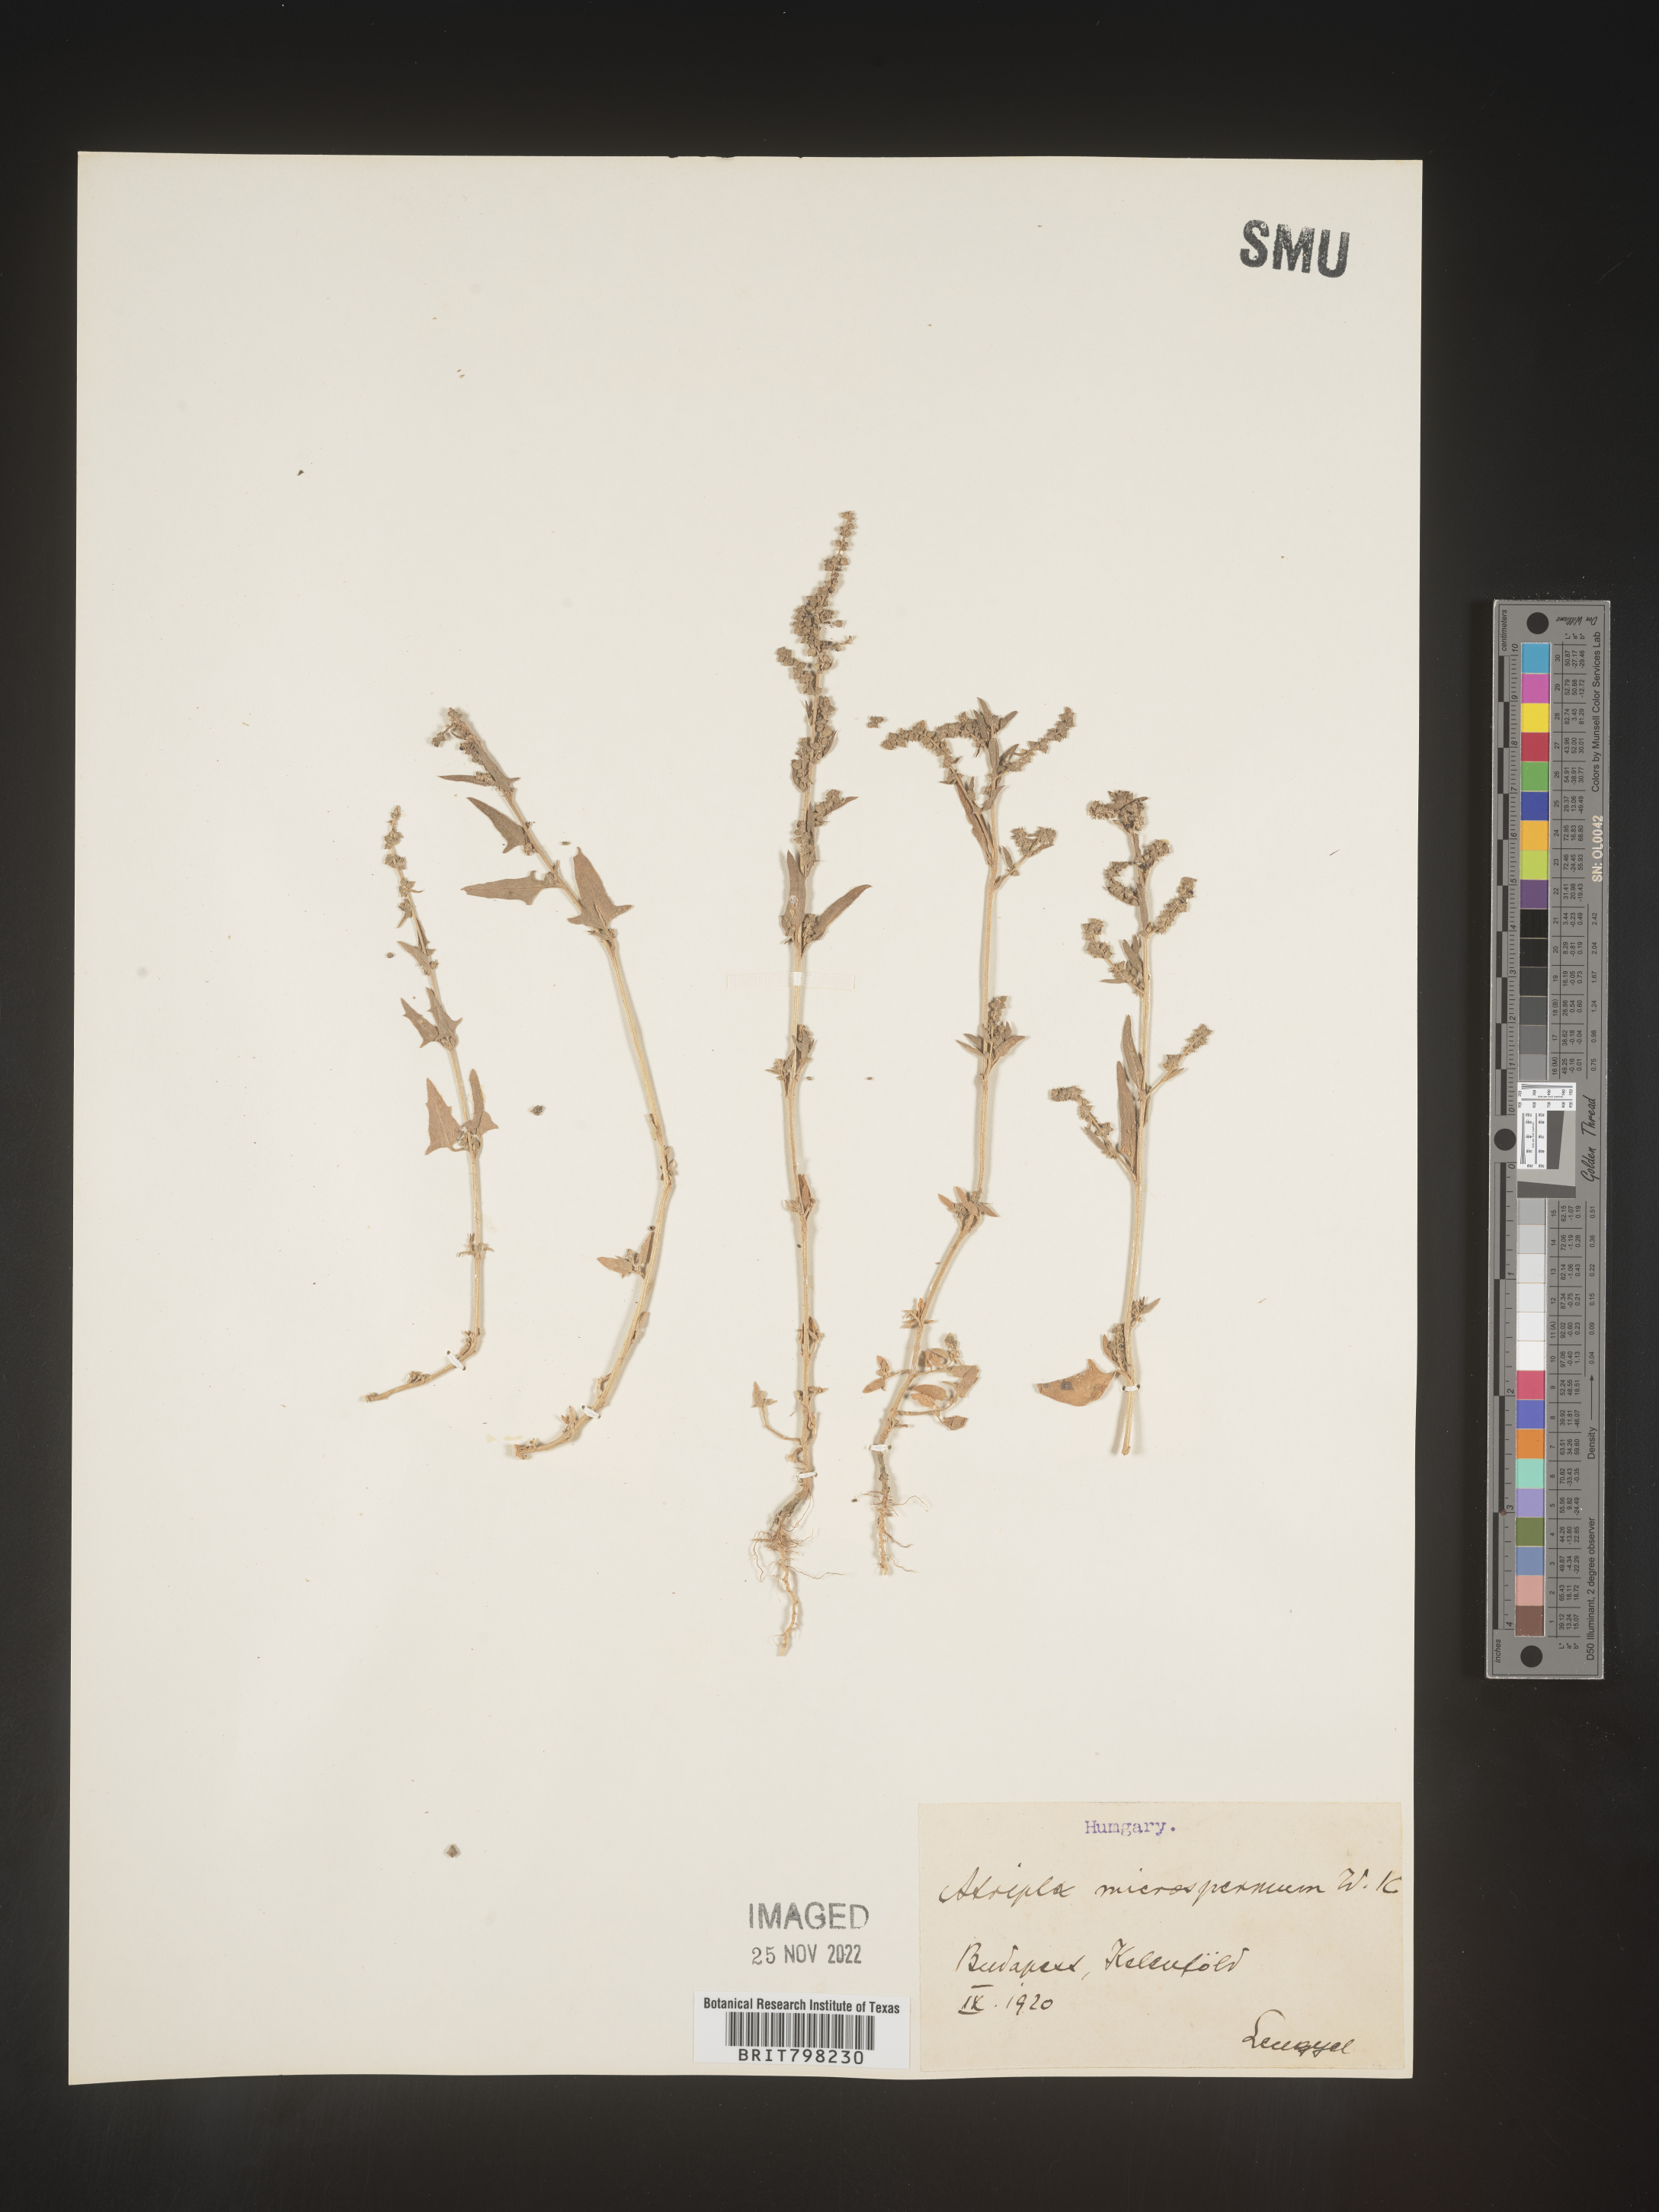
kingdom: Plantae
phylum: Tracheophyta
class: Magnoliopsida
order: Caryophyllales
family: Amaranthaceae
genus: Atriplex
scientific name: Atriplex
